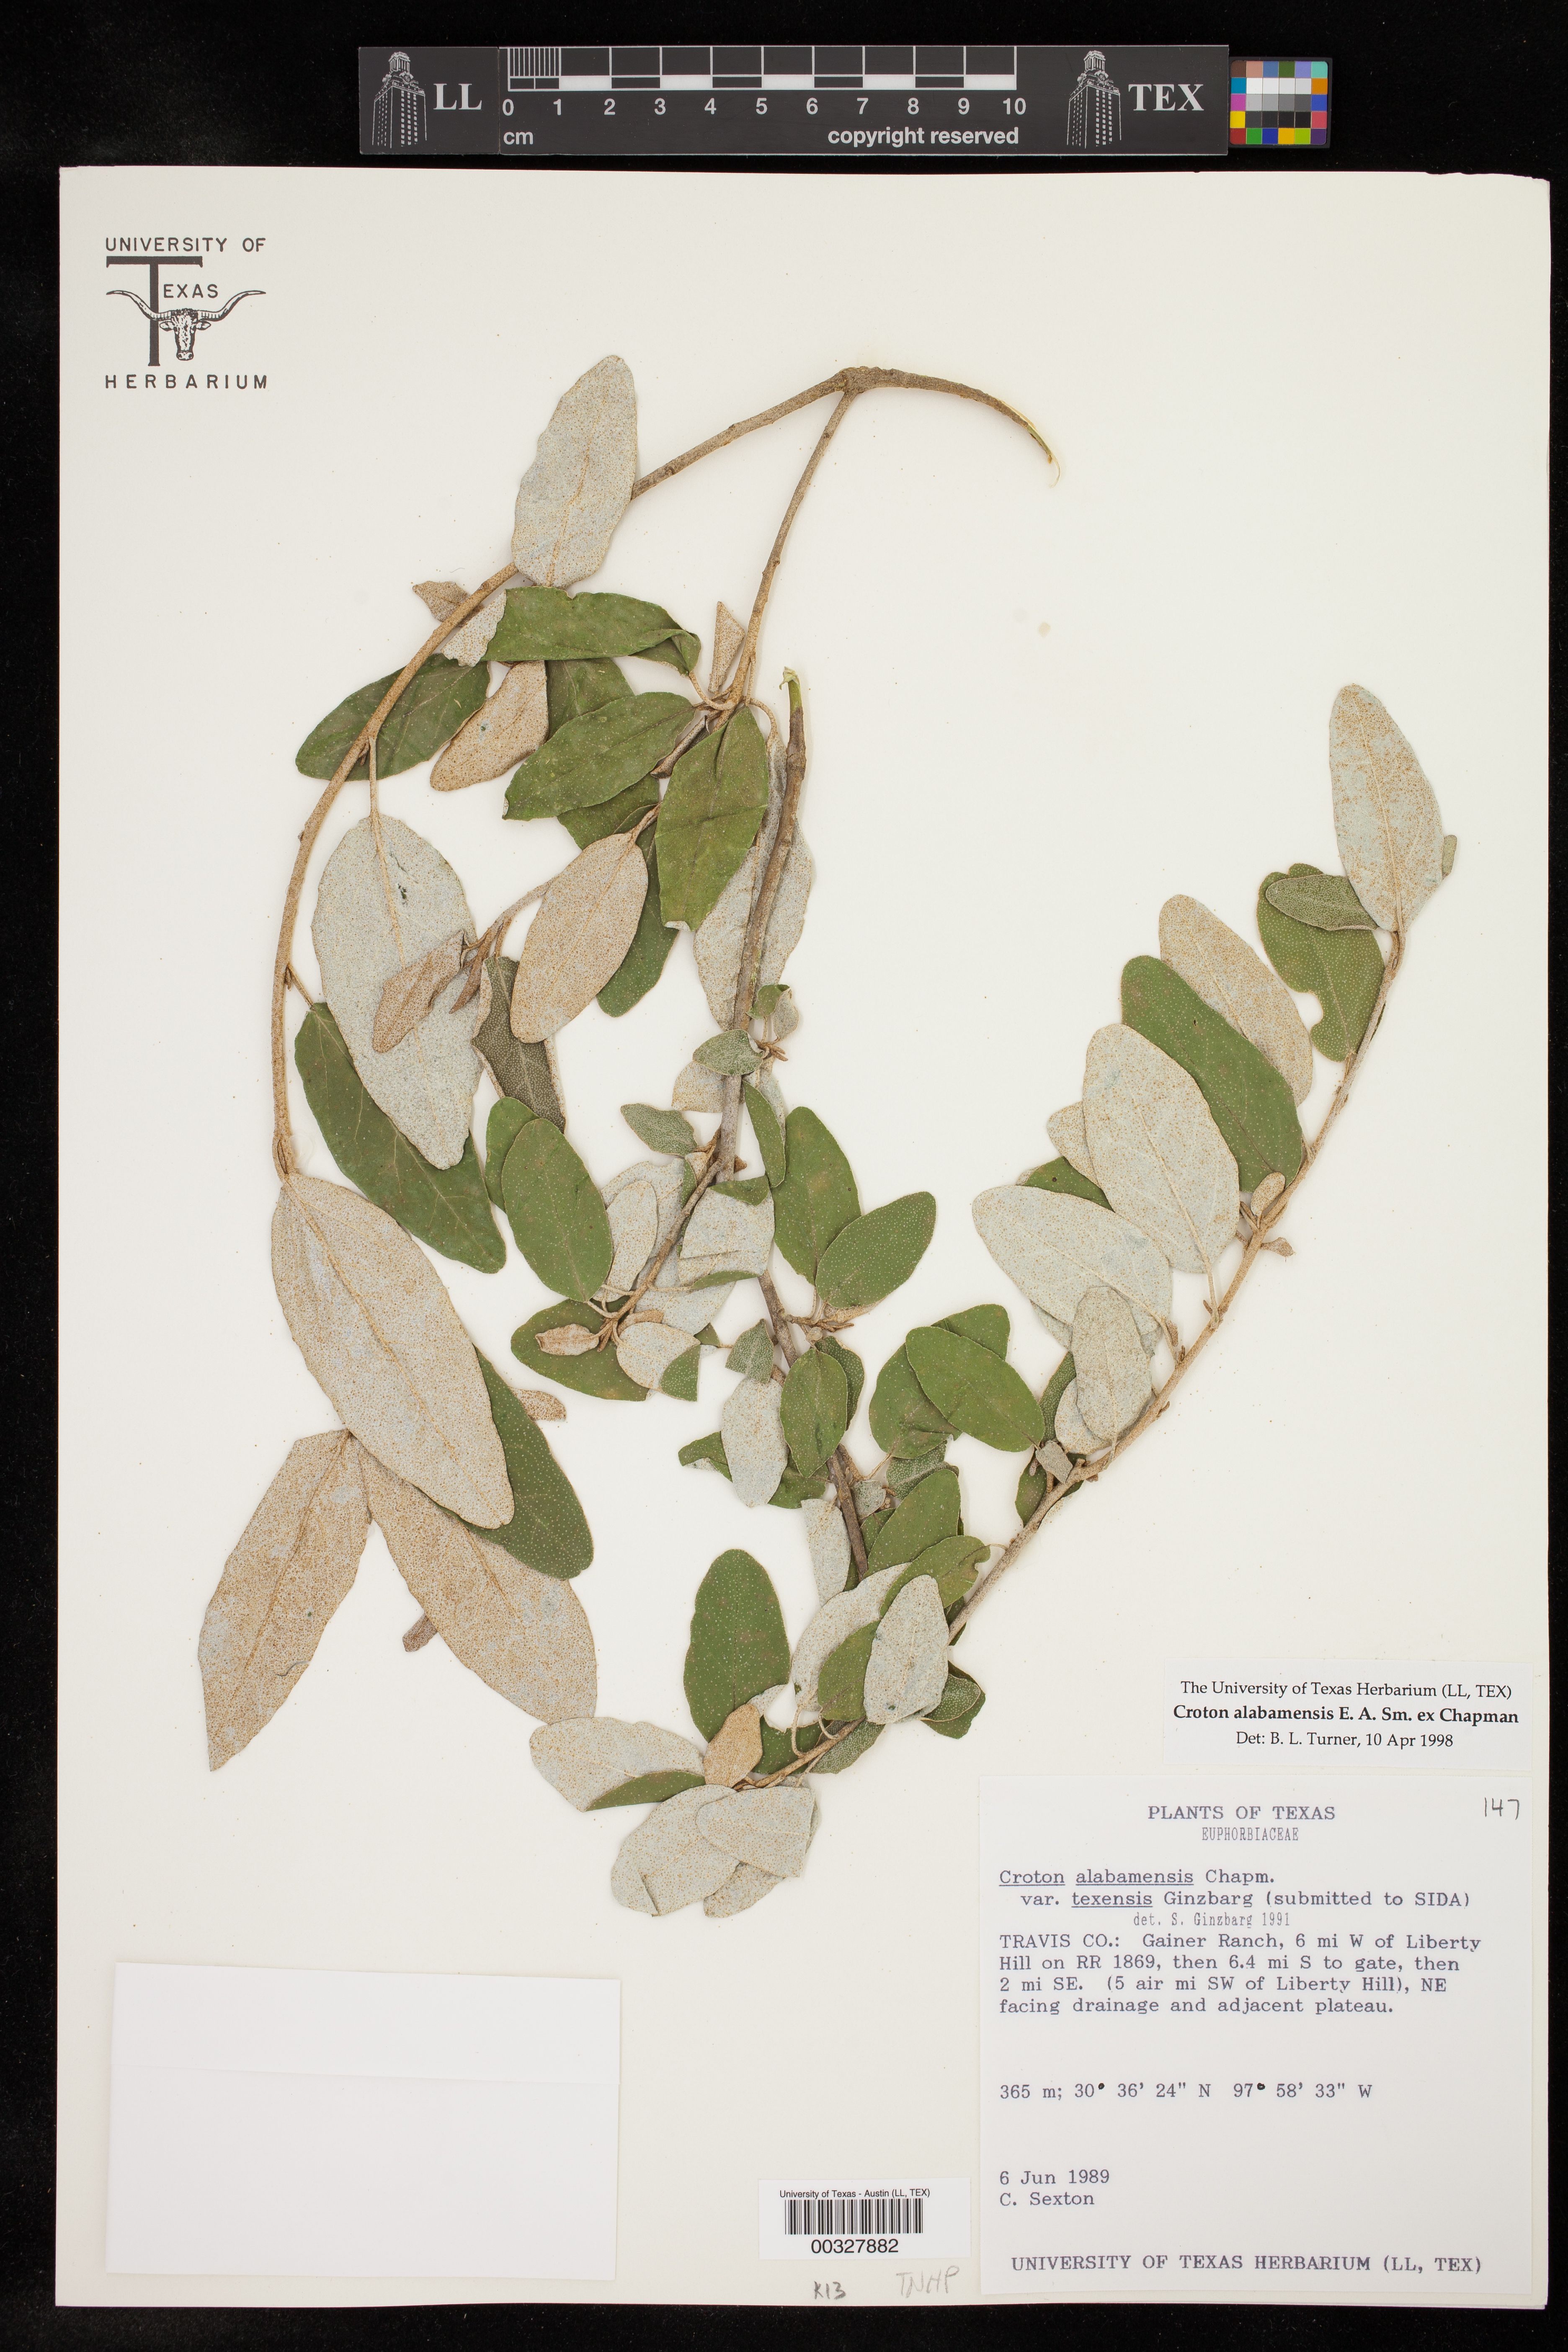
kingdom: Plantae
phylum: Tracheophyta
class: Magnoliopsida
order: Malpighiales
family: Euphorbiaceae
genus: Croton
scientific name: Croton alabamensis
